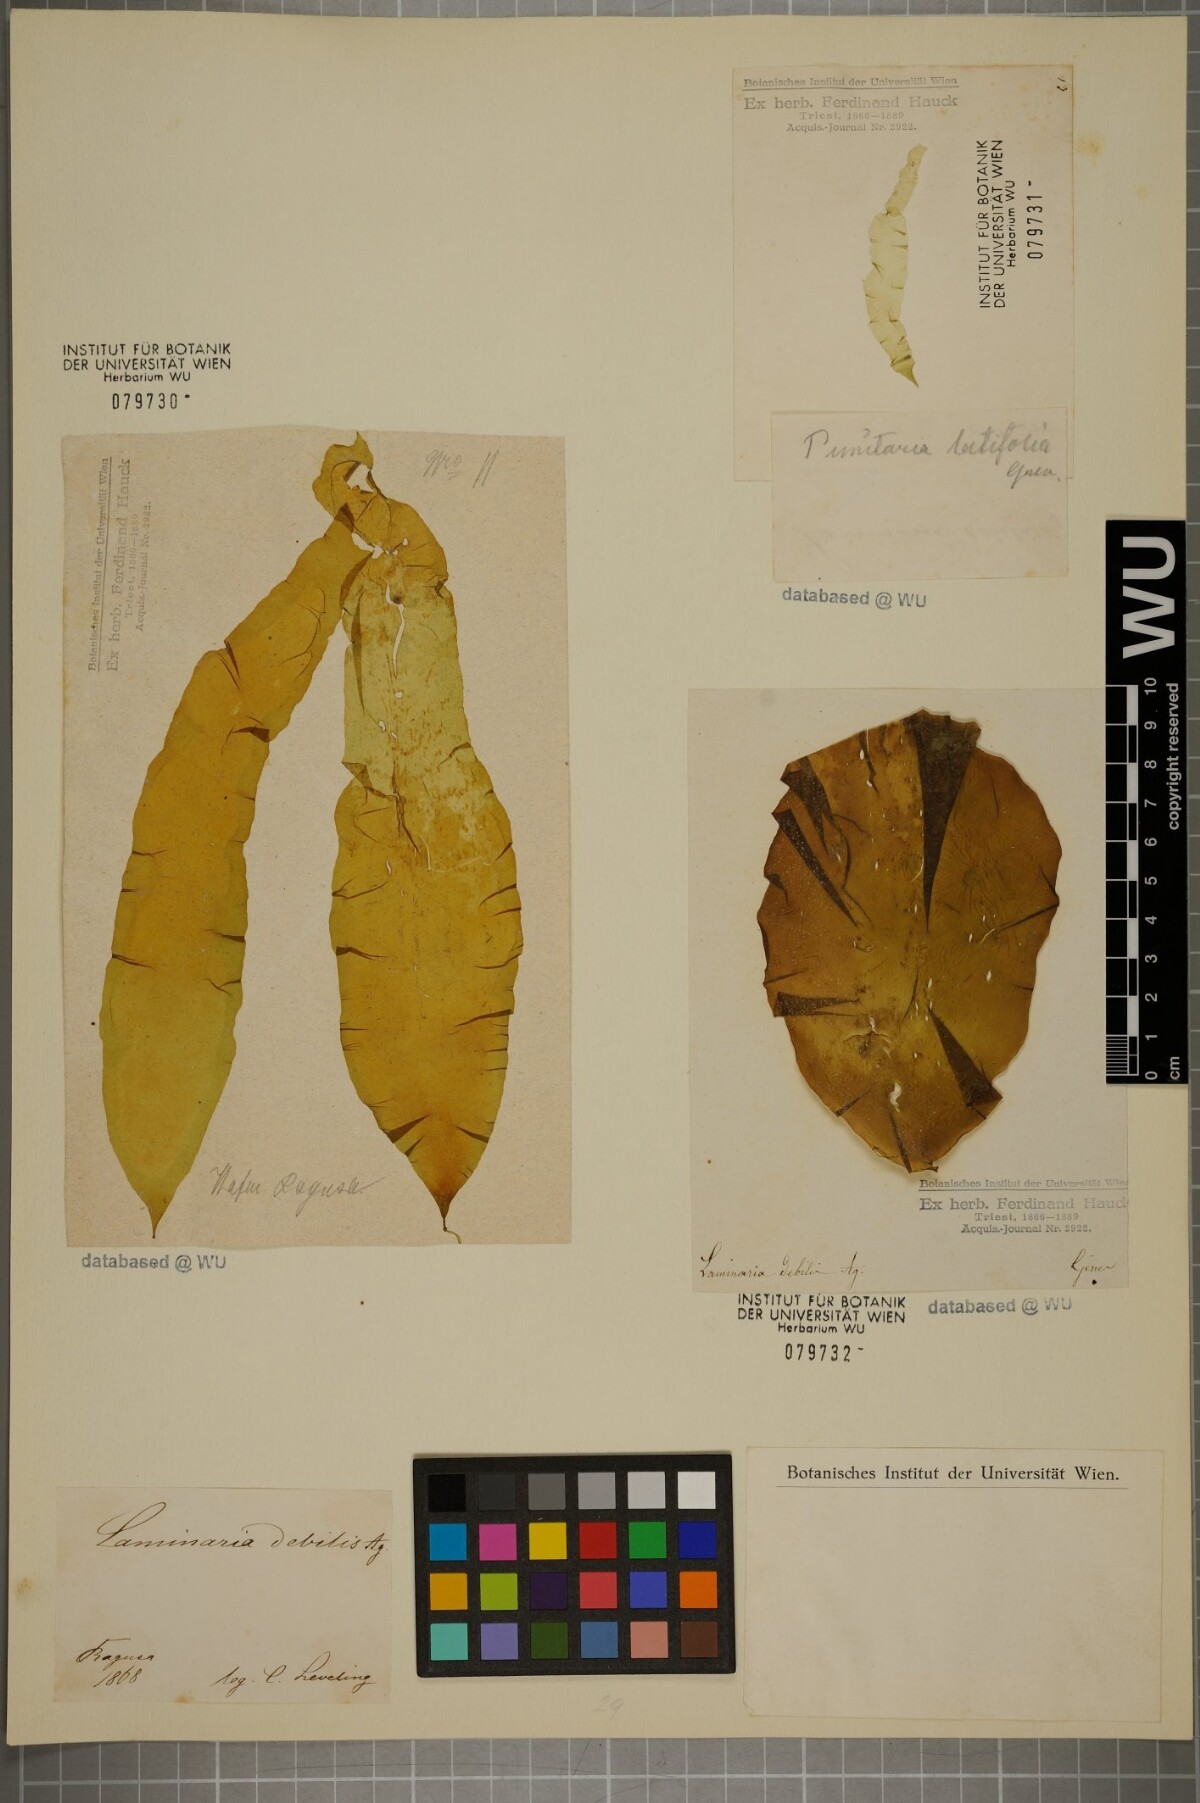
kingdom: Chromista
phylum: Ochrophyta
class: Phaeophyceae
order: Laminariales
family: Laminariaceae
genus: Laminaria
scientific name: Laminaria
